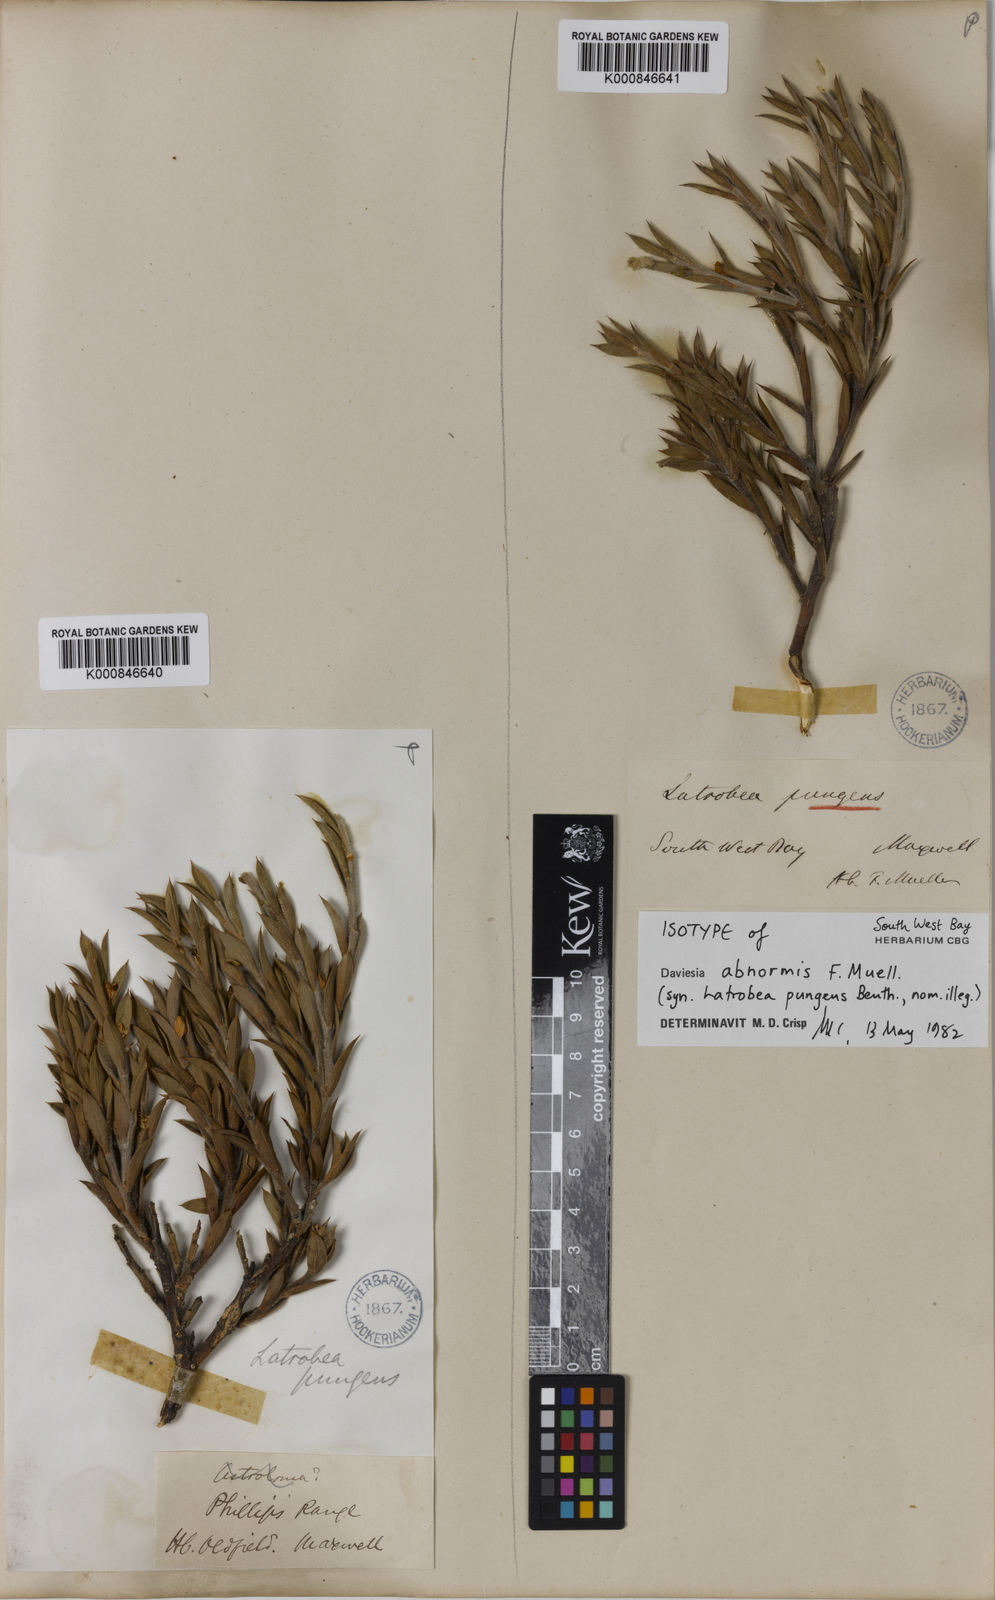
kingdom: Plantae
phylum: Tracheophyta
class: Magnoliopsida
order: Fabales
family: Fabaceae
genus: Daviesia
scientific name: Daviesia abnormis
